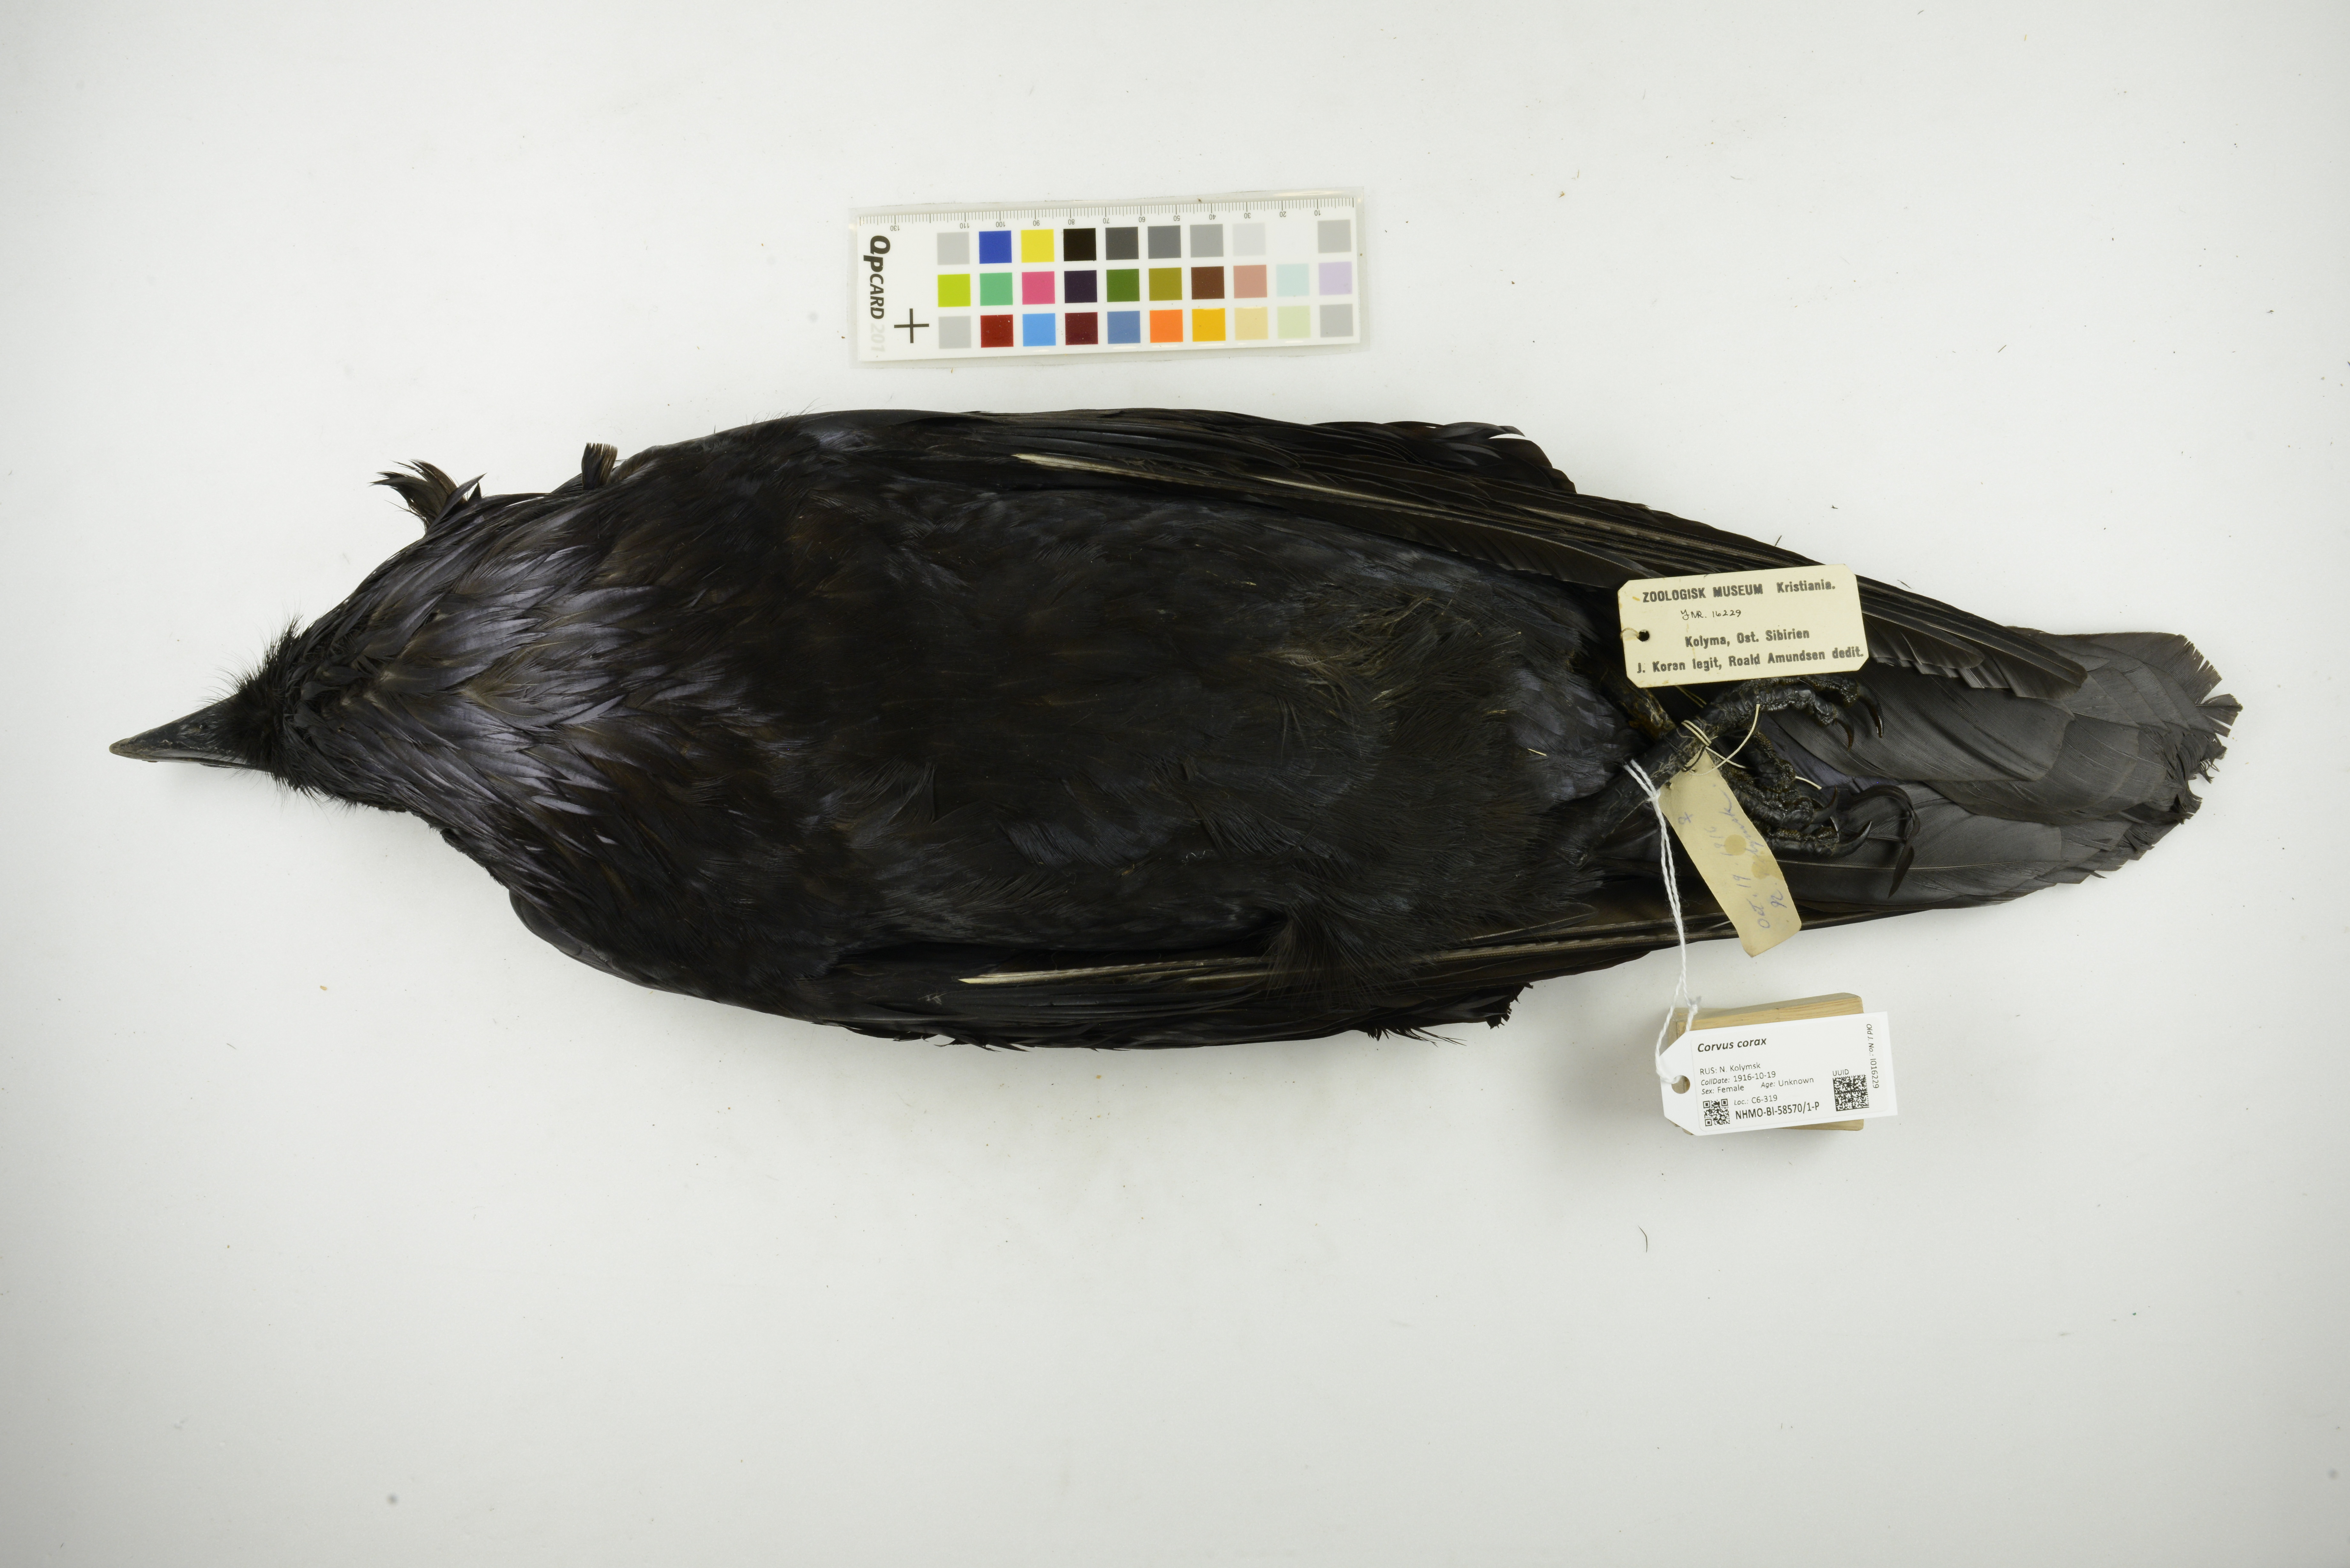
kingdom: Animalia
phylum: Chordata
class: Aves
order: Passeriformes
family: Corvidae
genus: Corvus
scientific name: Corvus corax
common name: Common raven
